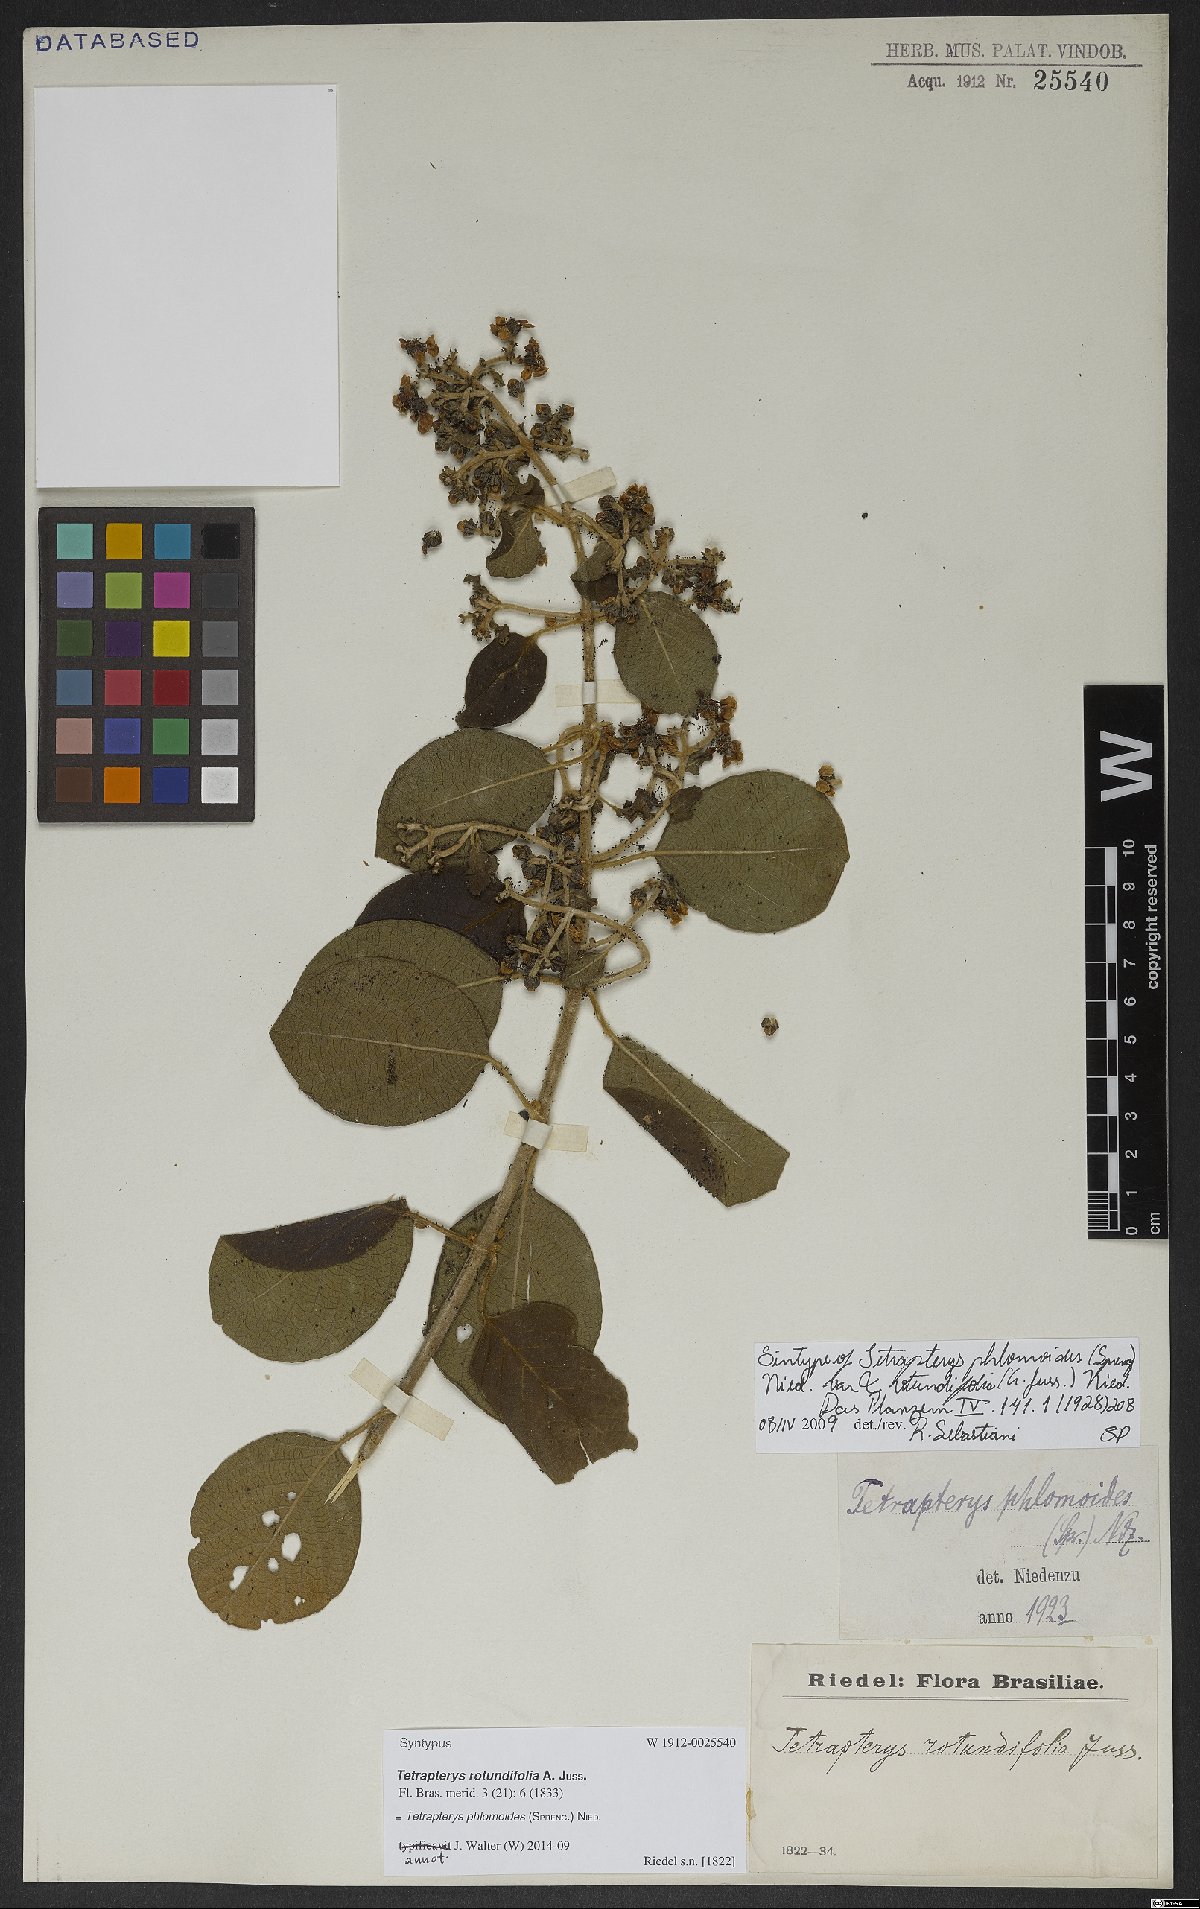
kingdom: Plantae
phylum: Tracheophyta
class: Magnoliopsida
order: Malpighiales
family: Malpighiaceae
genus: Tetrapterys
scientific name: Tetrapterys phlomoides
